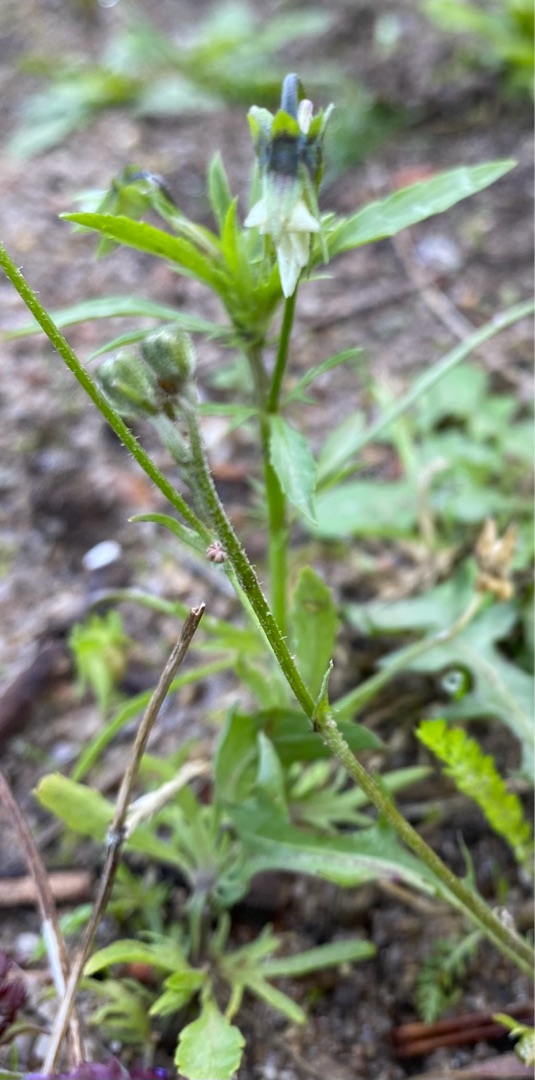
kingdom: Plantae
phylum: Tracheophyta
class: Magnoliopsida
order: Malpighiales
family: Violaceae
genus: Viola
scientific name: Viola arvensis
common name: Ager-stedmoderblomst
